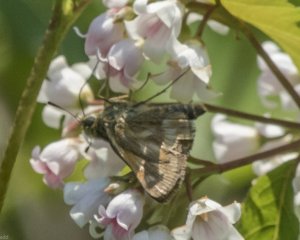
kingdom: Animalia
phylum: Arthropoda
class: Insecta
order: Lepidoptera
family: Hesperiidae
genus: Polites
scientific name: Polites
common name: Long Dash Skipper
